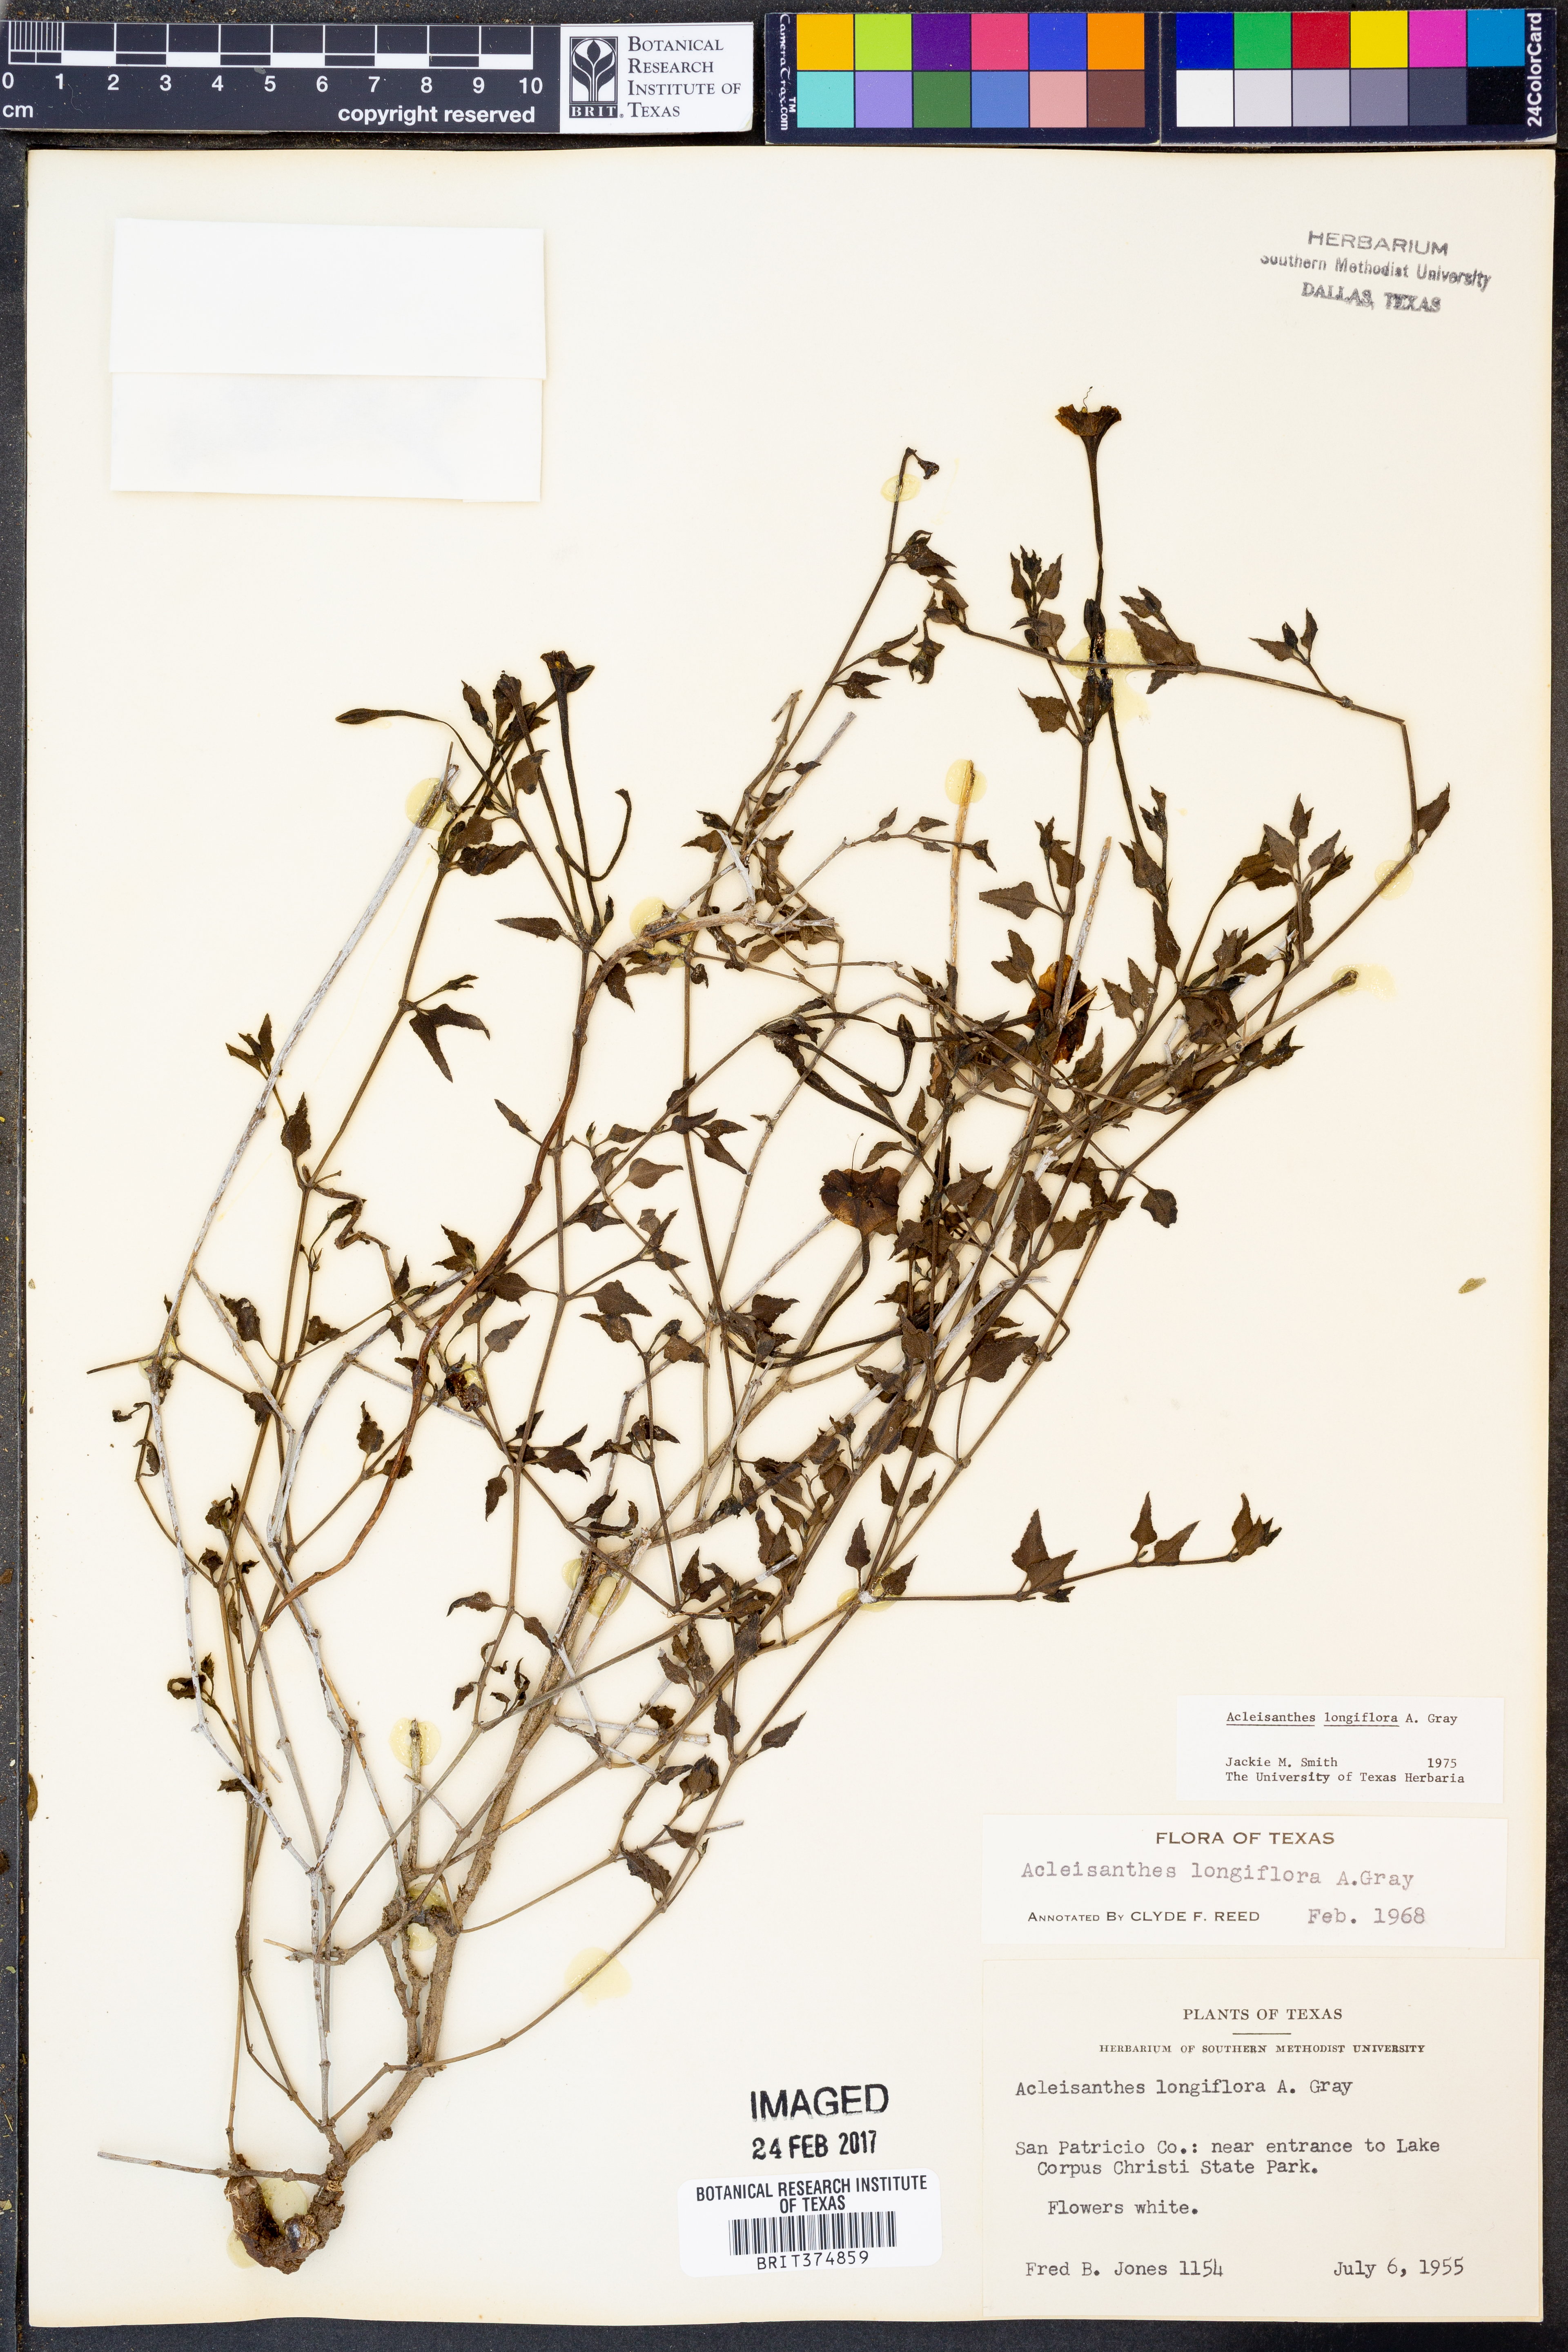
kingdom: Plantae
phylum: Tracheophyta
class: Magnoliopsida
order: Caryophyllales
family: Nyctaginaceae
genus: Acleisanthes
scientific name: Acleisanthes longiflora
